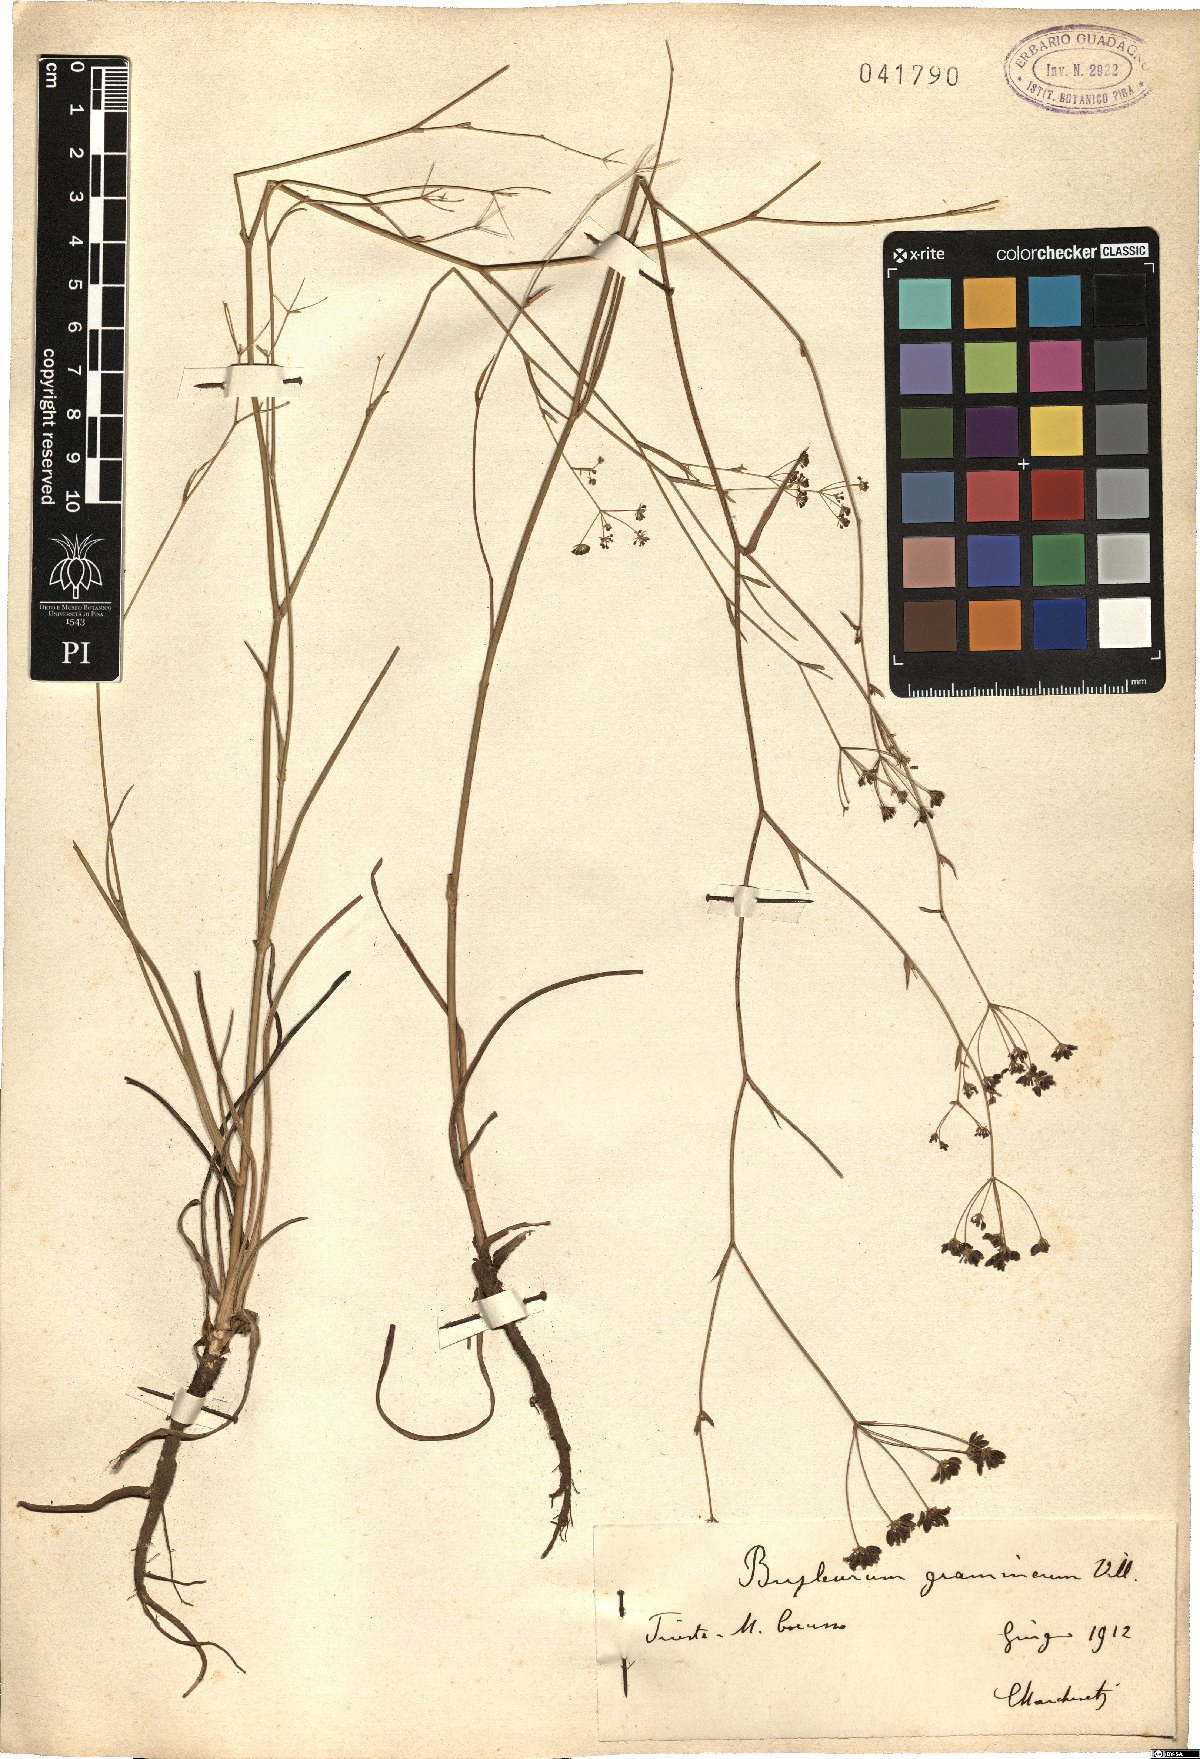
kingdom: Plantae
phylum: Tracheophyta
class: Magnoliopsida
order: Apiales
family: Apiaceae
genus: Bupleurum
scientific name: Bupleurum ranunculoides
